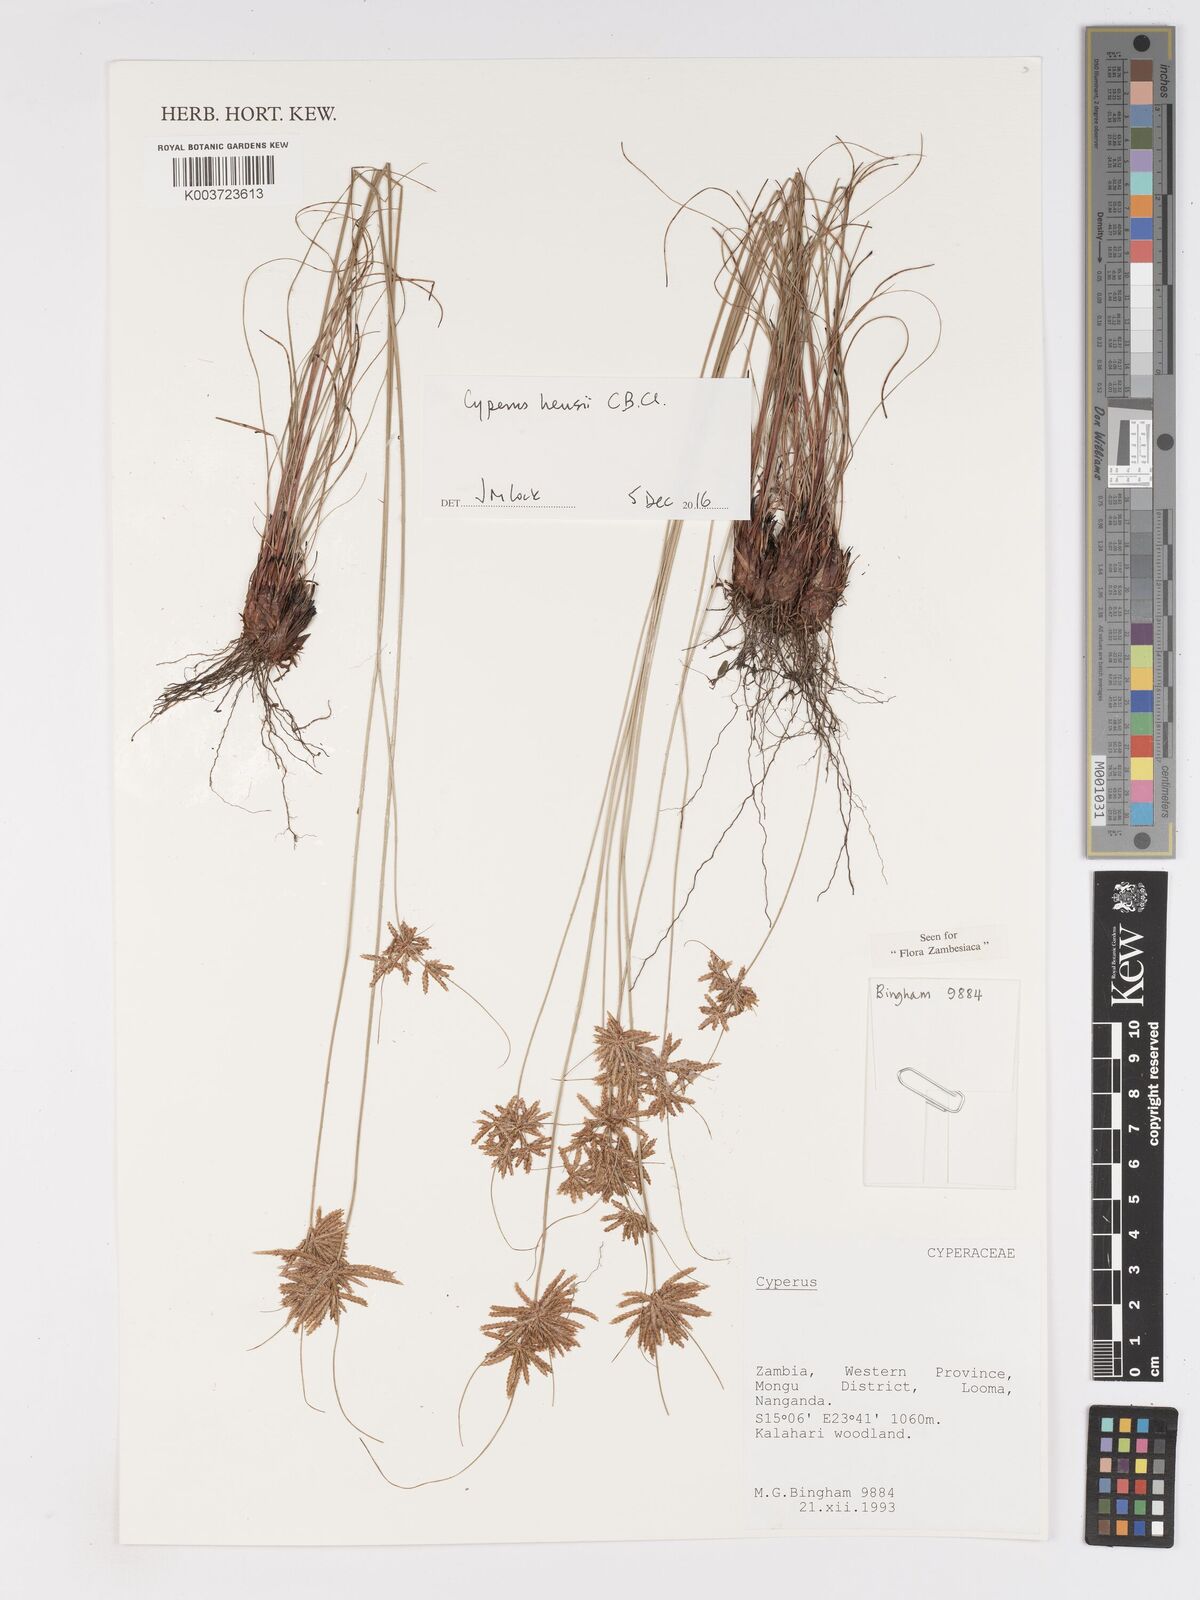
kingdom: Plantae
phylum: Tracheophyta
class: Liliopsida
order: Poales
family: Cyperaceae
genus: Cyperus
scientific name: Cyperus hensii
